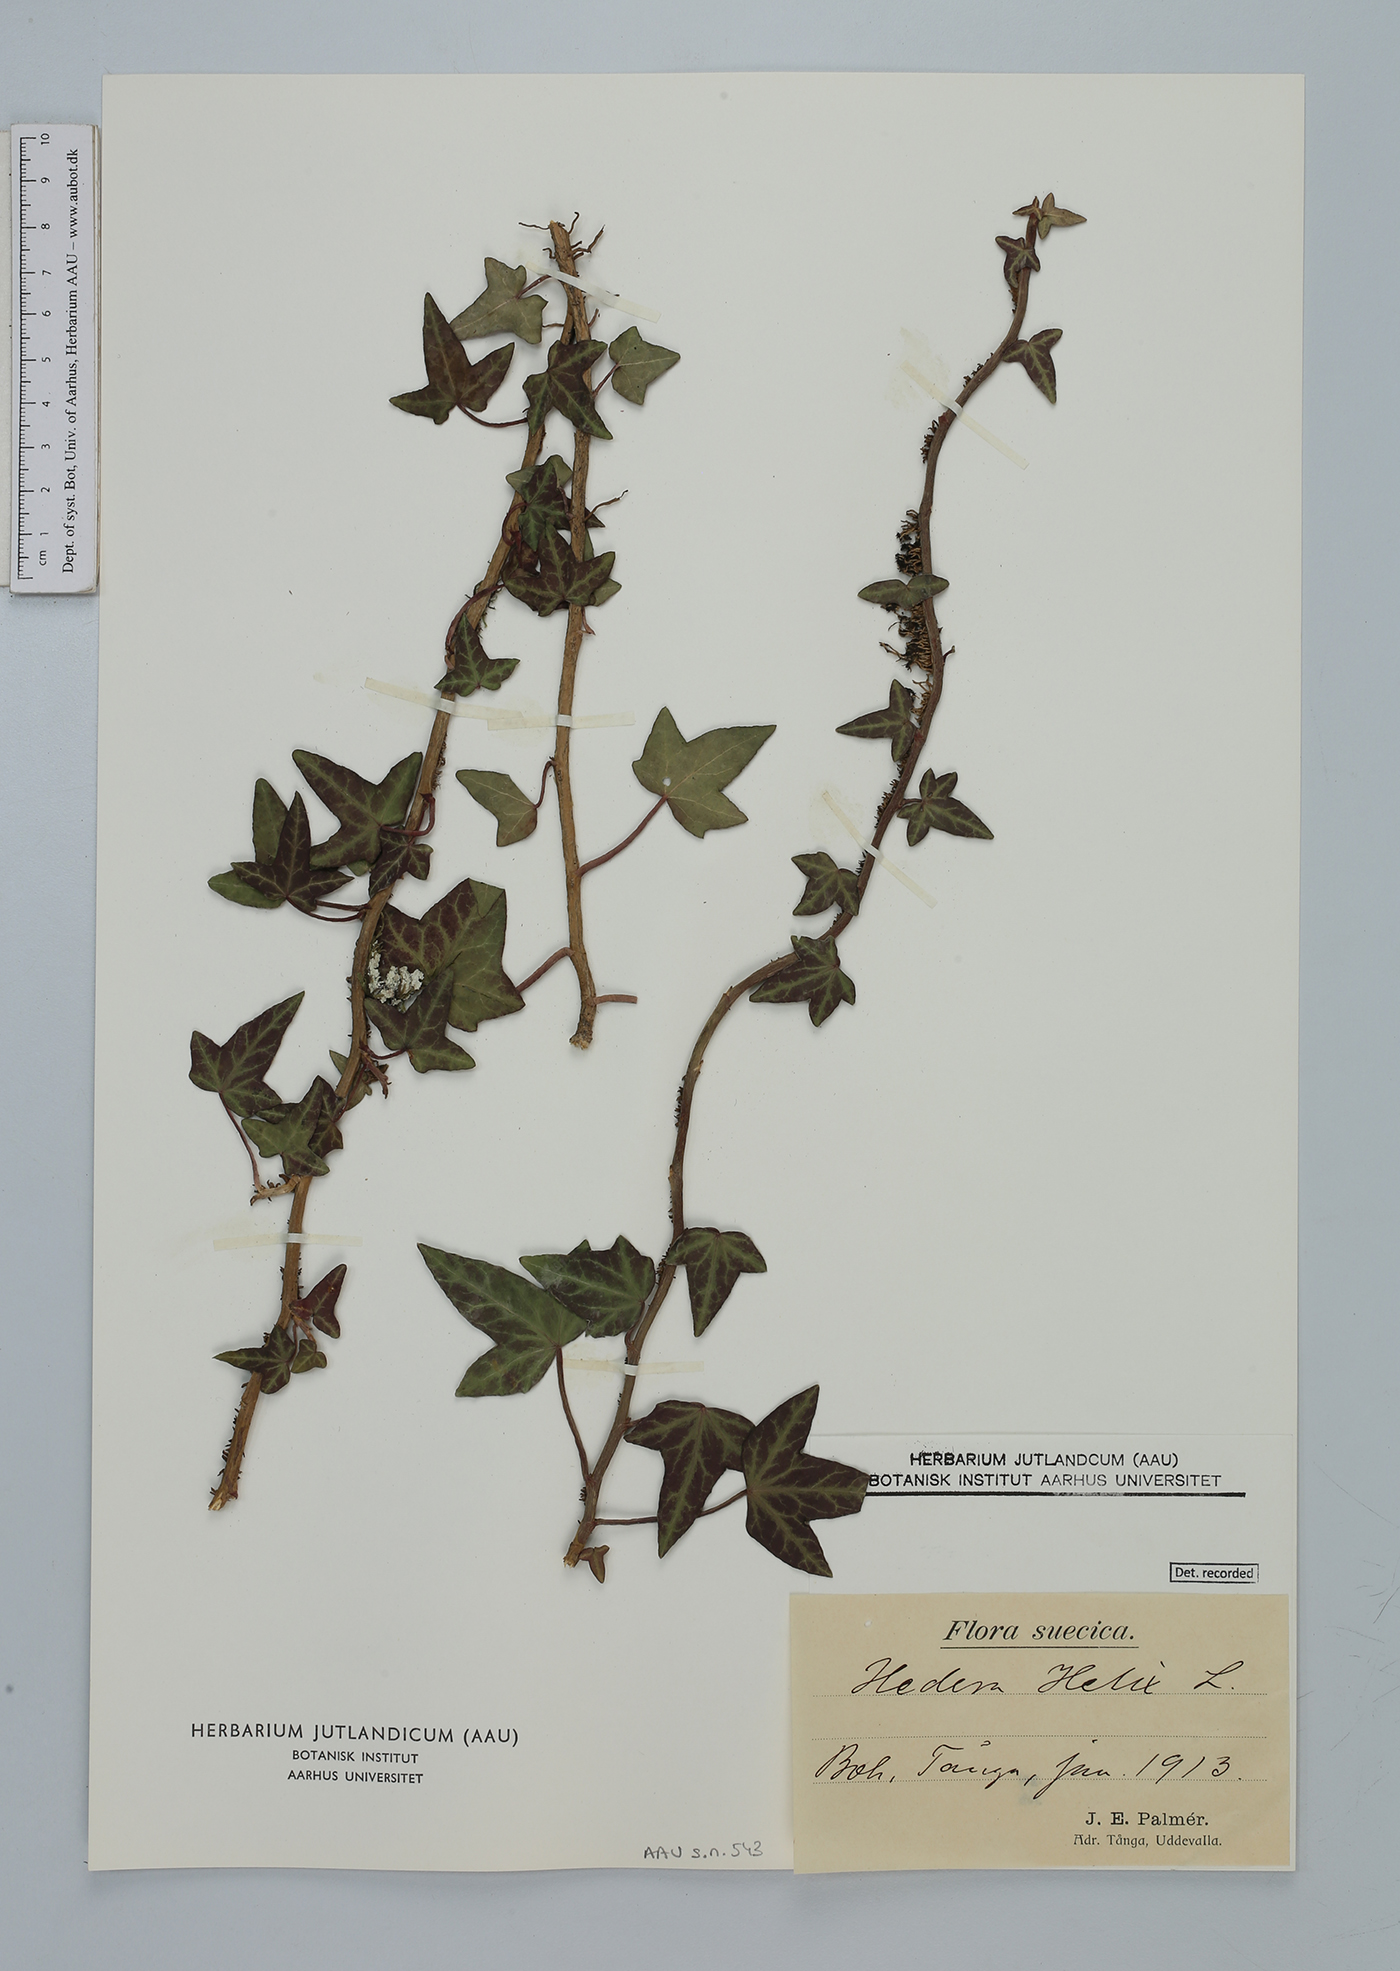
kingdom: Plantae
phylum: Tracheophyta
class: Magnoliopsida
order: Apiales
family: Araliaceae
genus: Hedera
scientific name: Hedera helix
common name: Ivy
